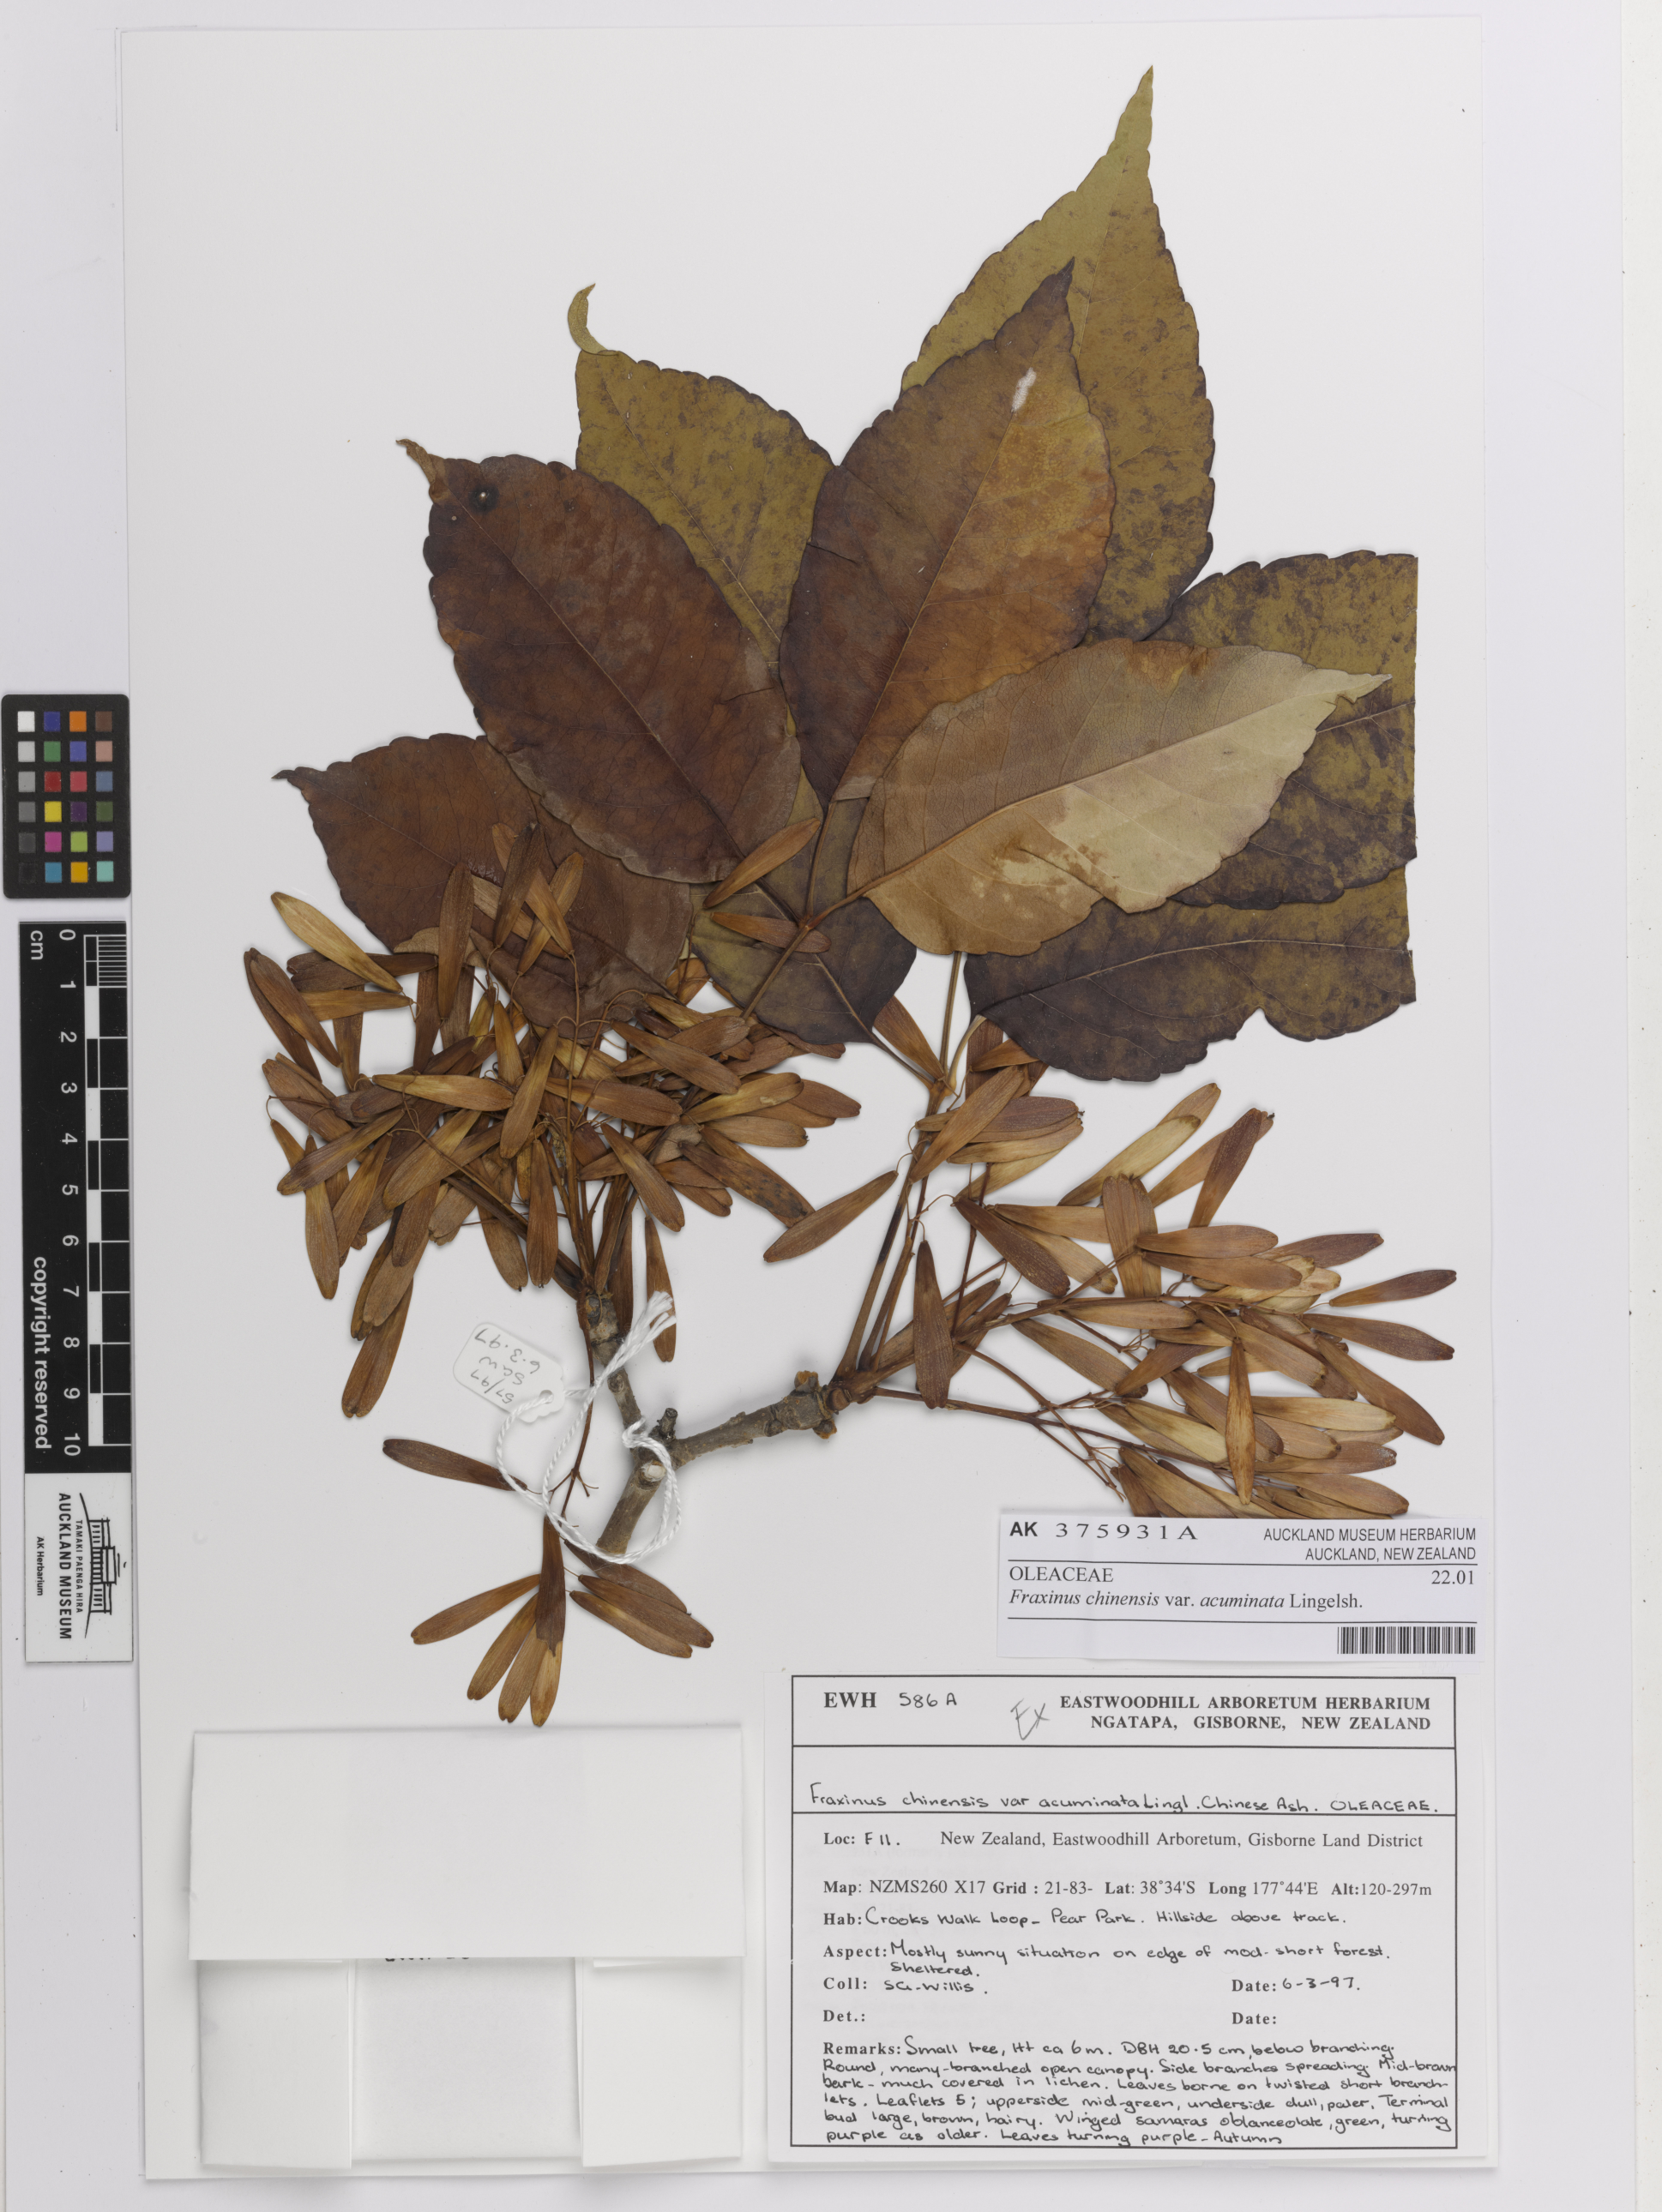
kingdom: Plantae
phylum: Tracheophyta
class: Magnoliopsida
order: Lamiales
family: Oleaceae
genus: Fraxinus
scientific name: Fraxinus longicuspis
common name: Japanese ash
